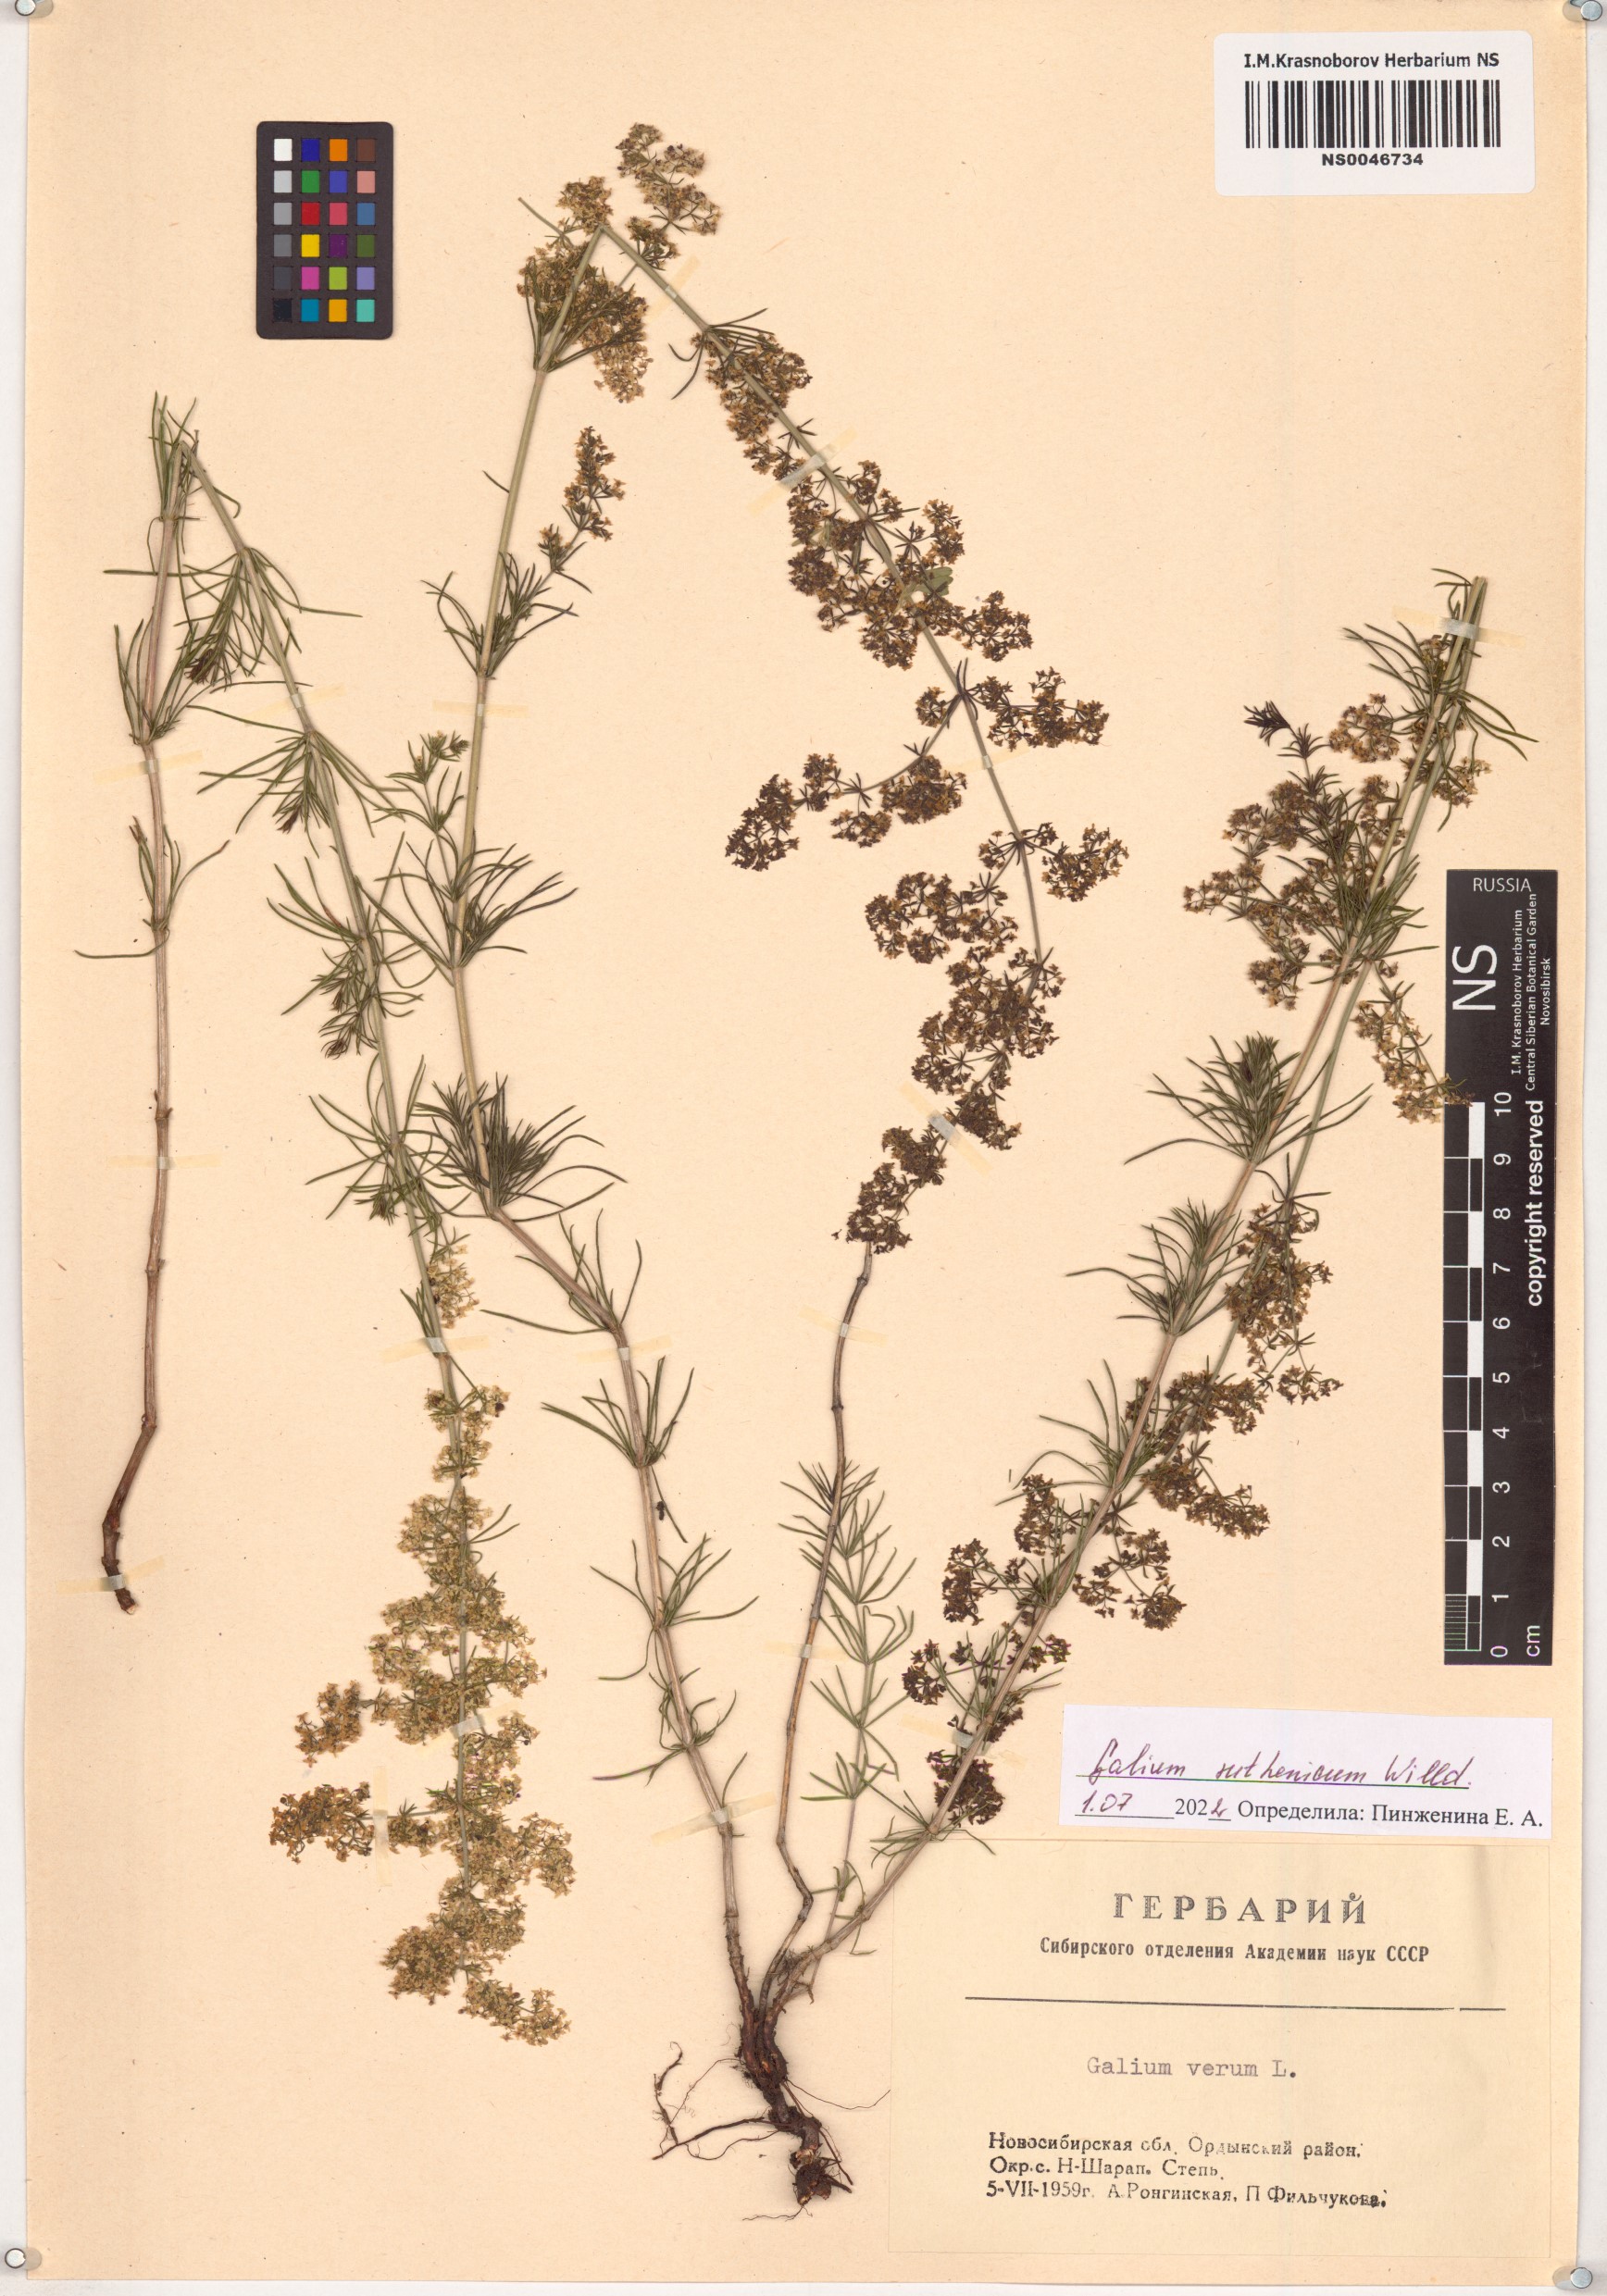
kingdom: Plantae
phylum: Tracheophyta
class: Magnoliopsida
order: Gentianales
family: Rubiaceae
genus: Galium
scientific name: Galium verum
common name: Lady's bedstraw
